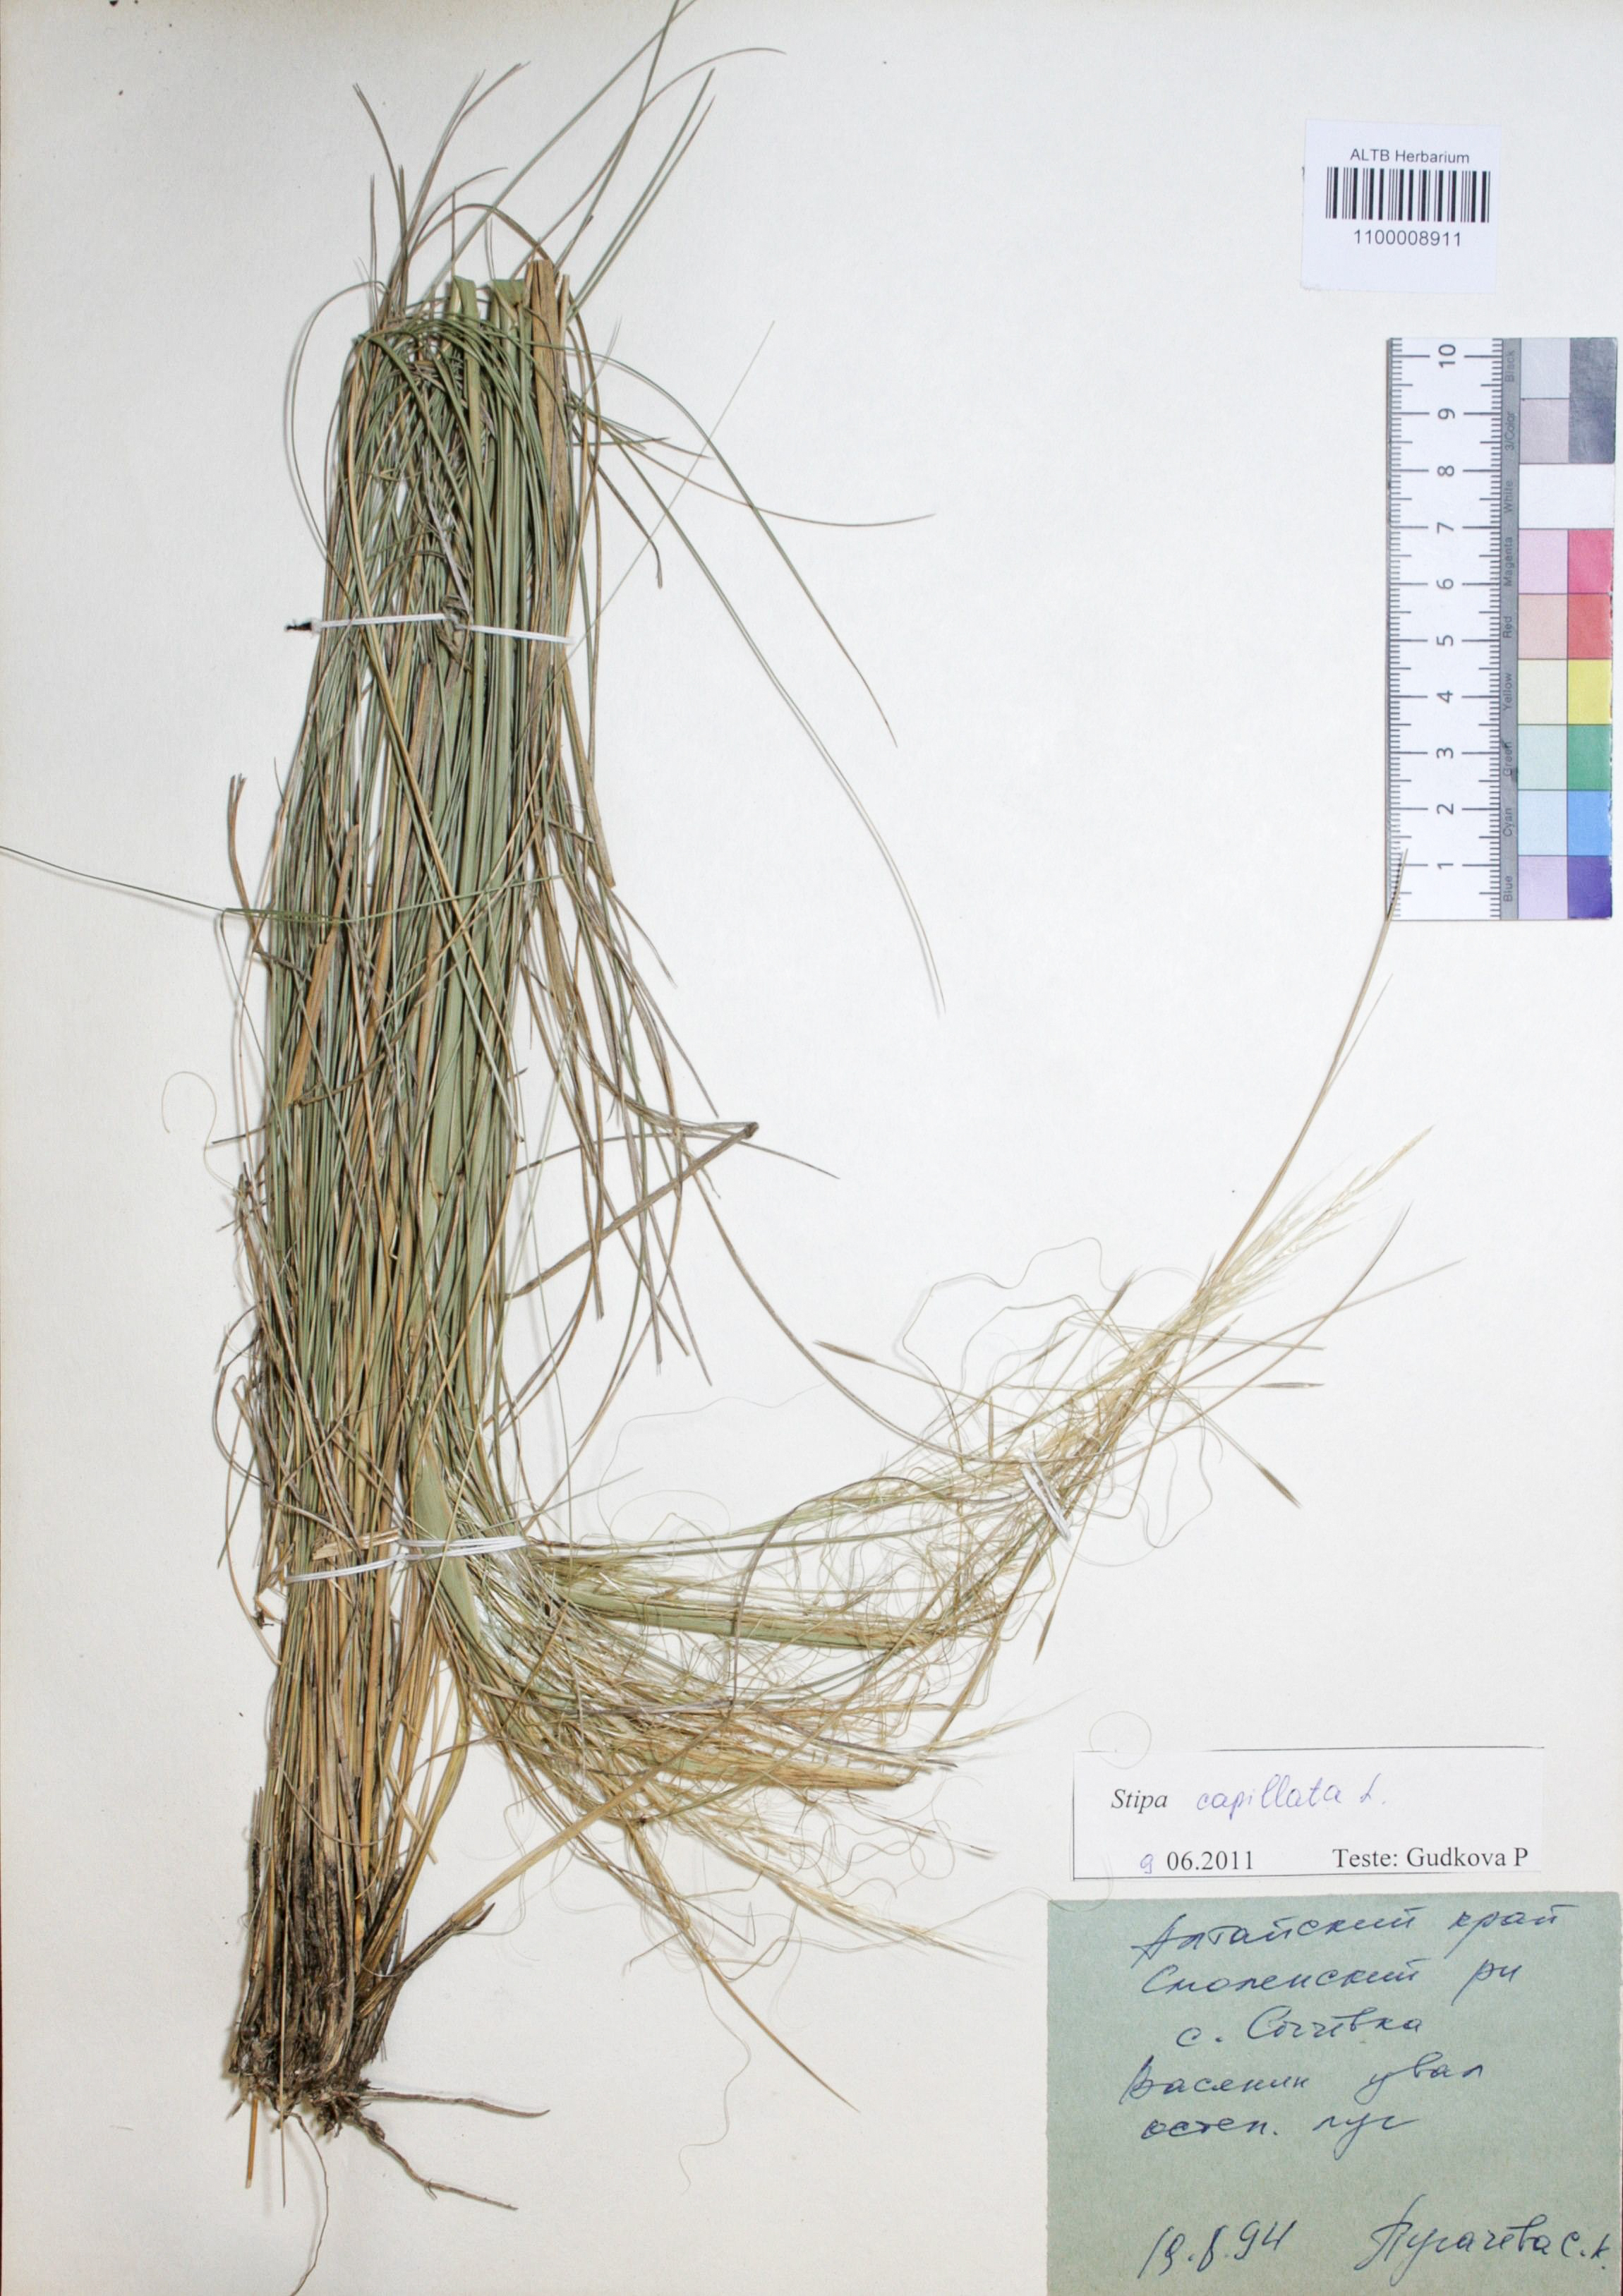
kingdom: Plantae
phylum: Tracheophyta
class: Liliopsida
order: Poales
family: Poaceae
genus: Stipa
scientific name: Stipa capillata
